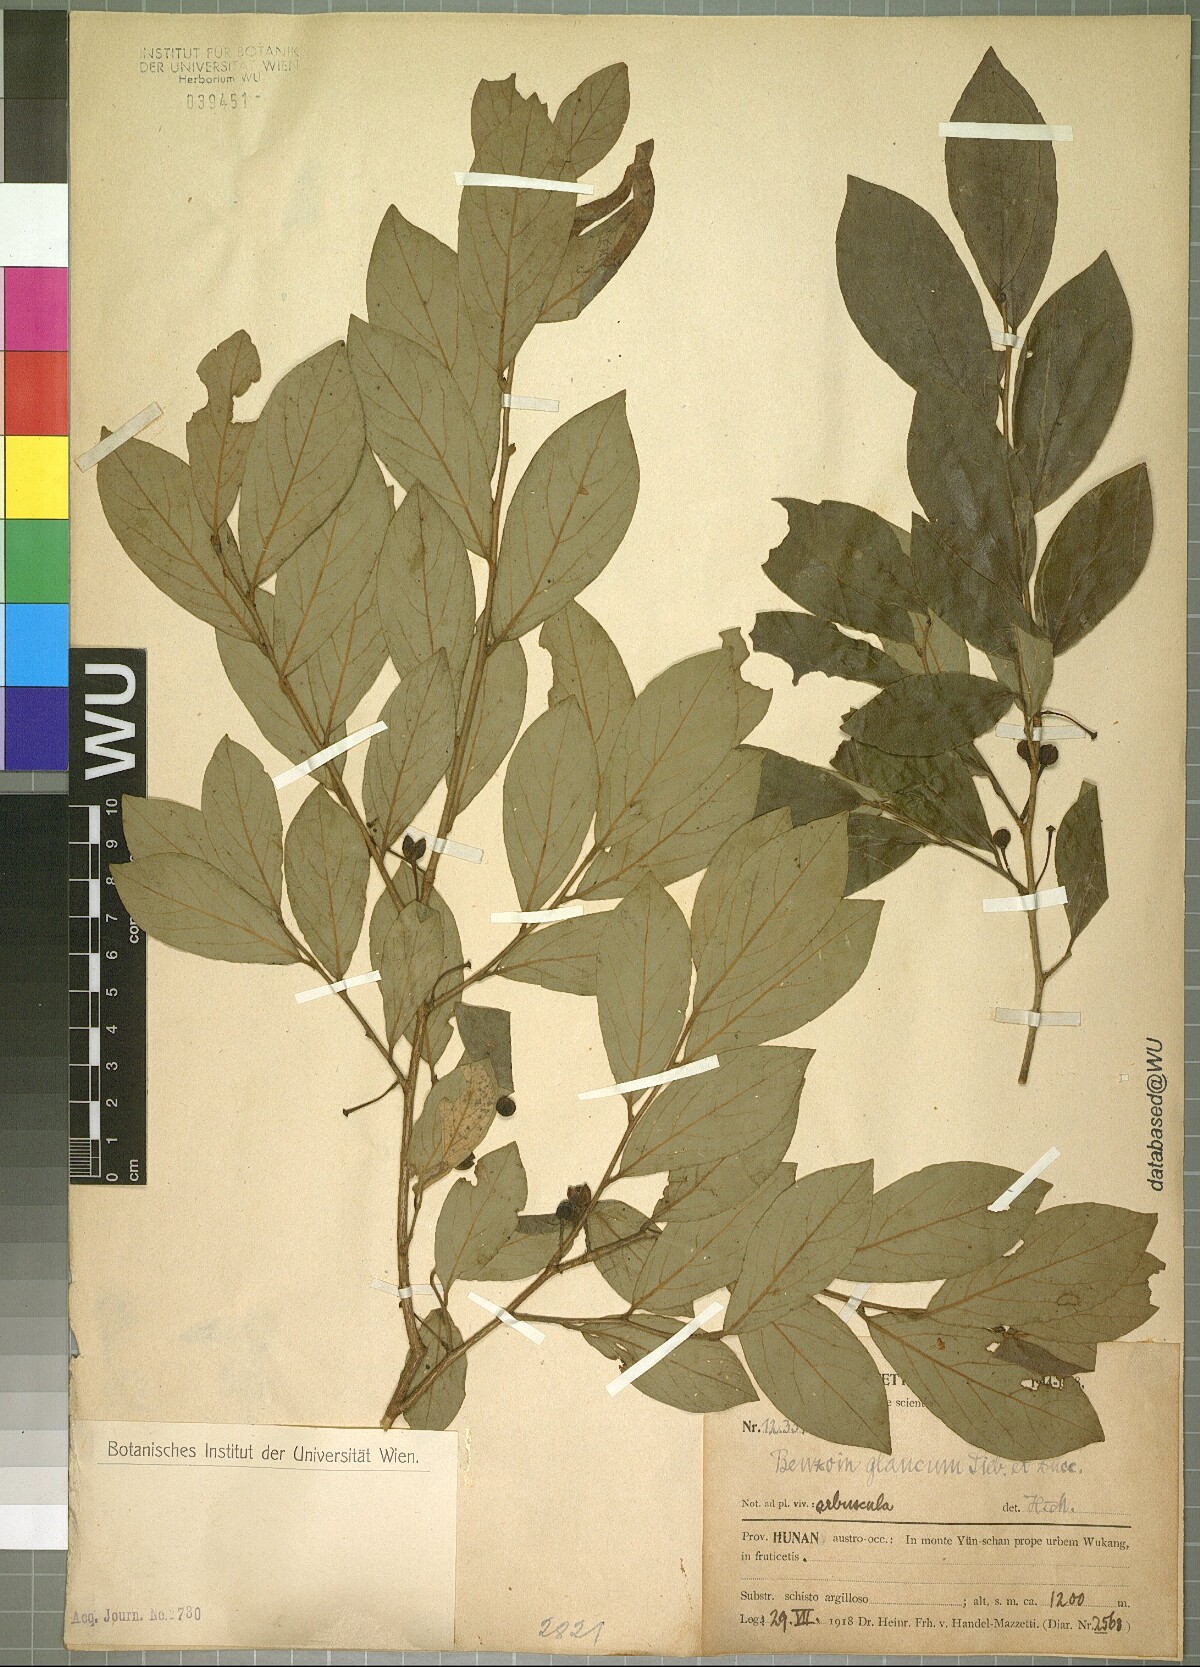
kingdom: Plantae
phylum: Tracheophyta
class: Magnoliopsida
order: Laurales
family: Lauraceae
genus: Lindera
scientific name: Lindera glauca
